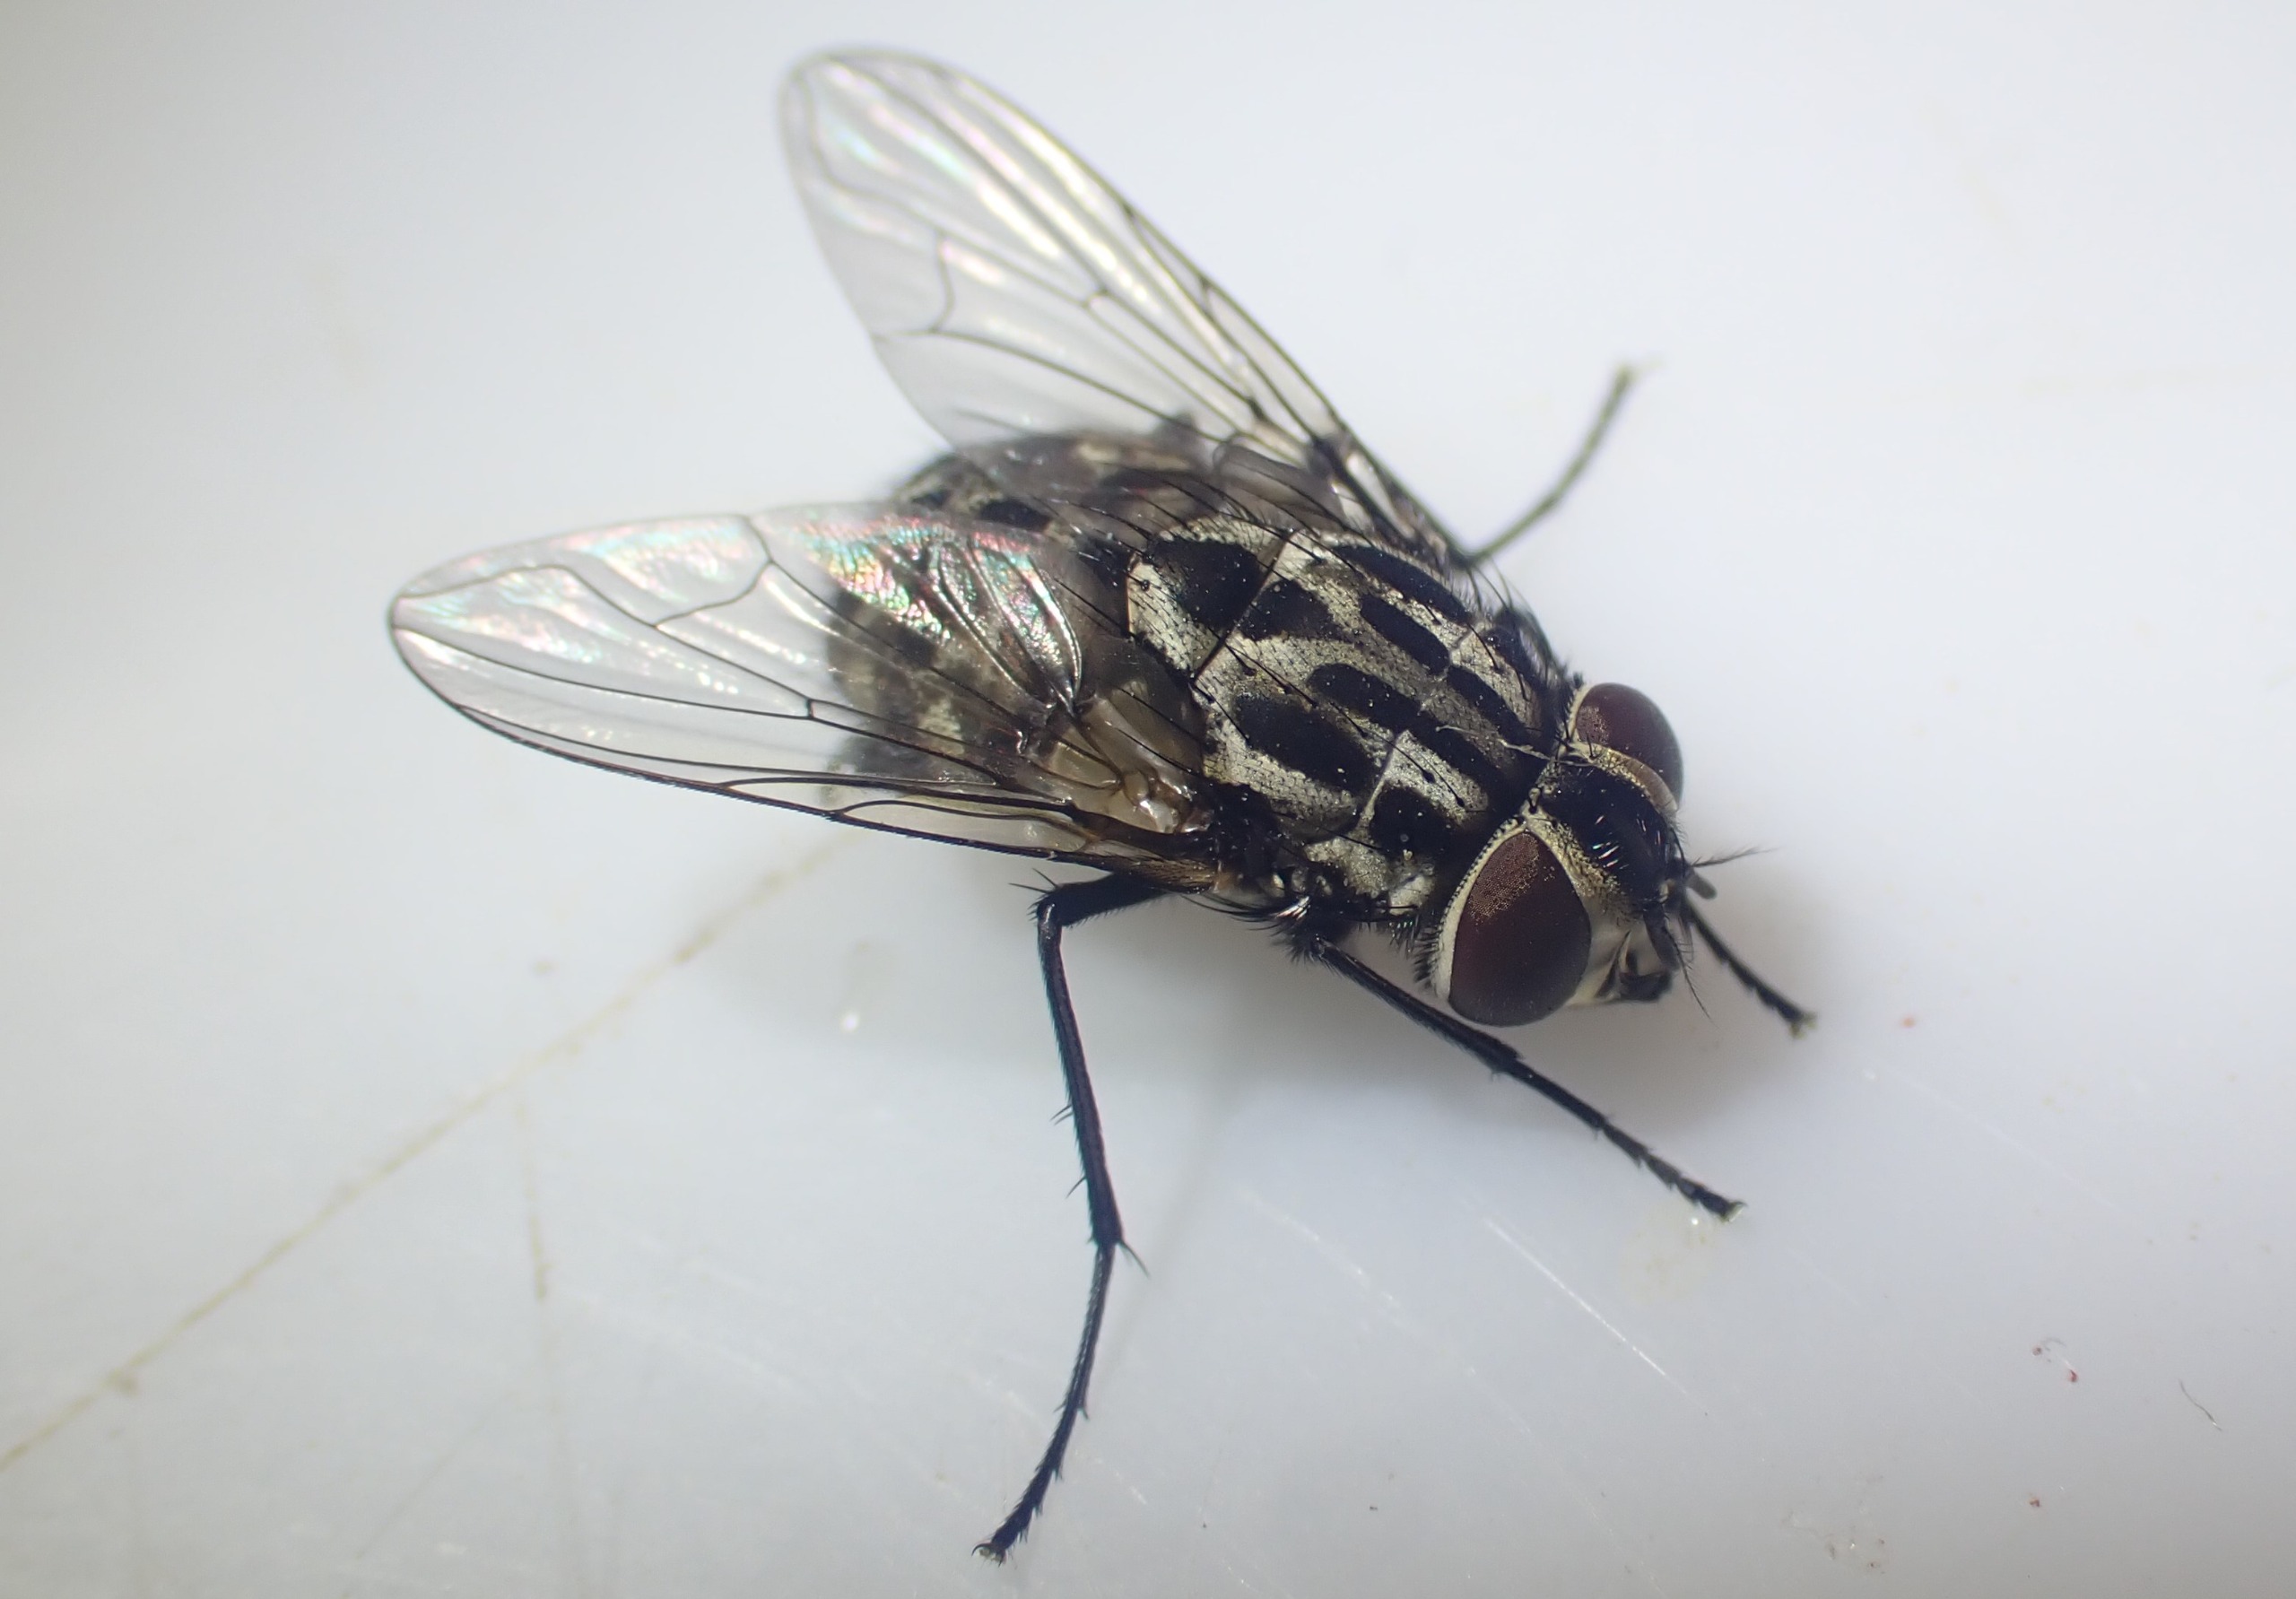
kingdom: Animalia
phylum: Arthropoda
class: Insecta
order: Diptera
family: Muscidae
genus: Graphomya
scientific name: Graphomya maculata
